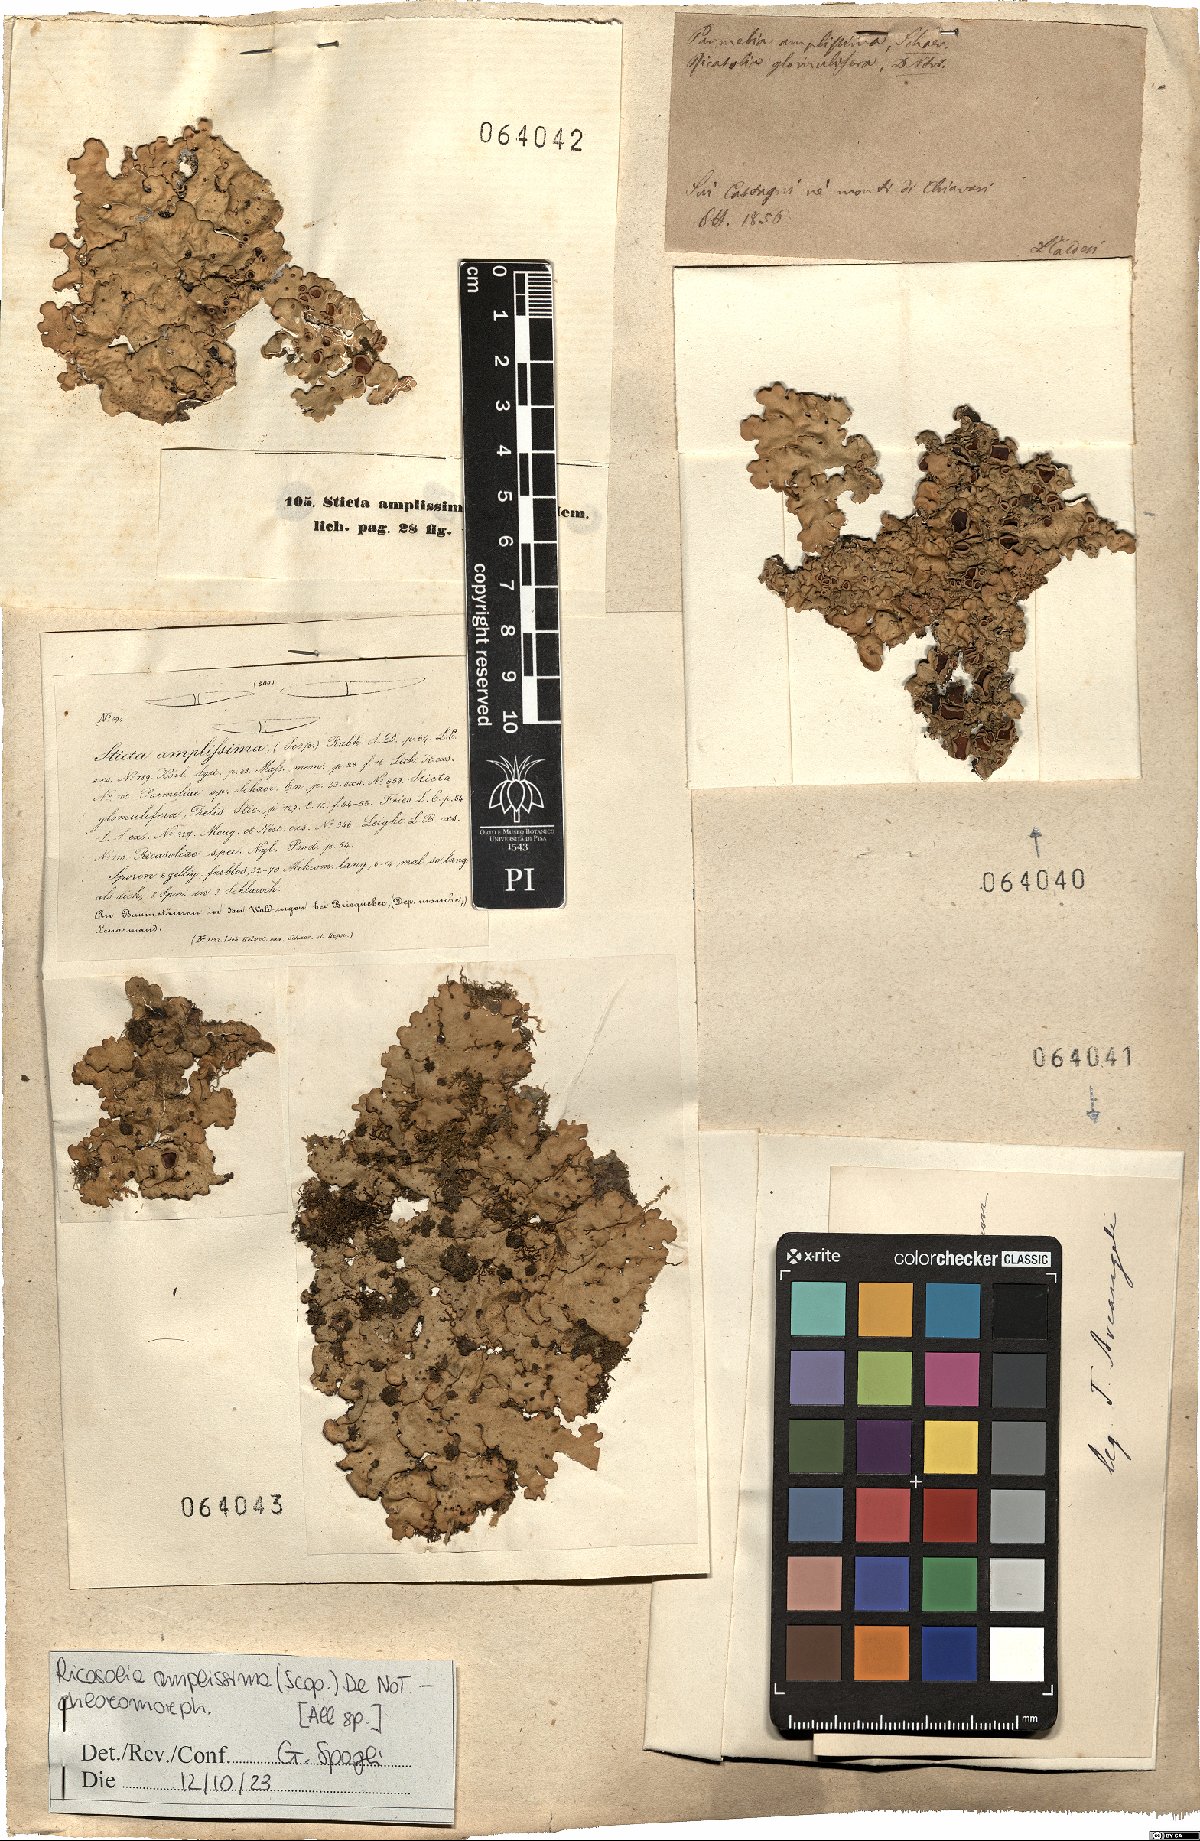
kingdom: Fungi
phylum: Ascomycota
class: Lecanoromycetes
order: Peltigerales
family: Lobariaceae
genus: Ricasolia
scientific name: Ricasolia amplissima
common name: Giant candlewax lichen
